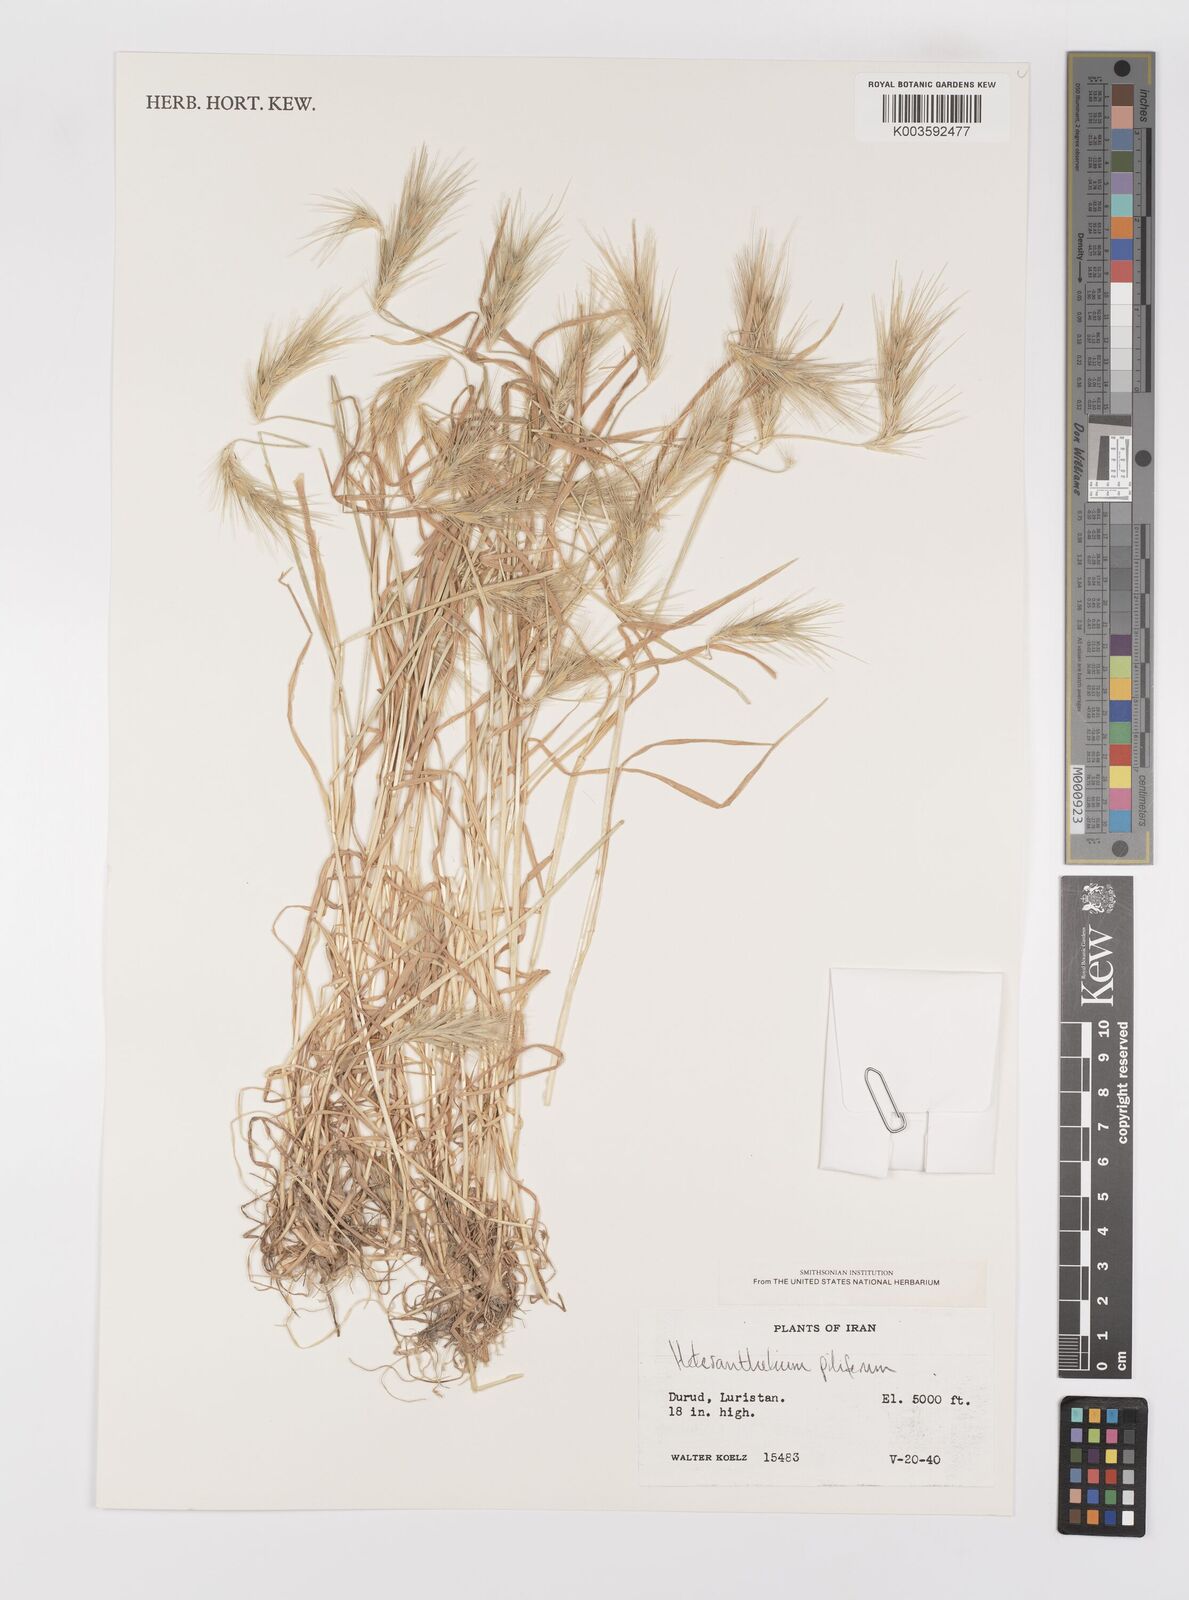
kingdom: Plantae
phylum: Tracheophyta
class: Liliopsida
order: Poales
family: Poaceae
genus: Heteranthelium
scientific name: Heteranthelium piliferum
